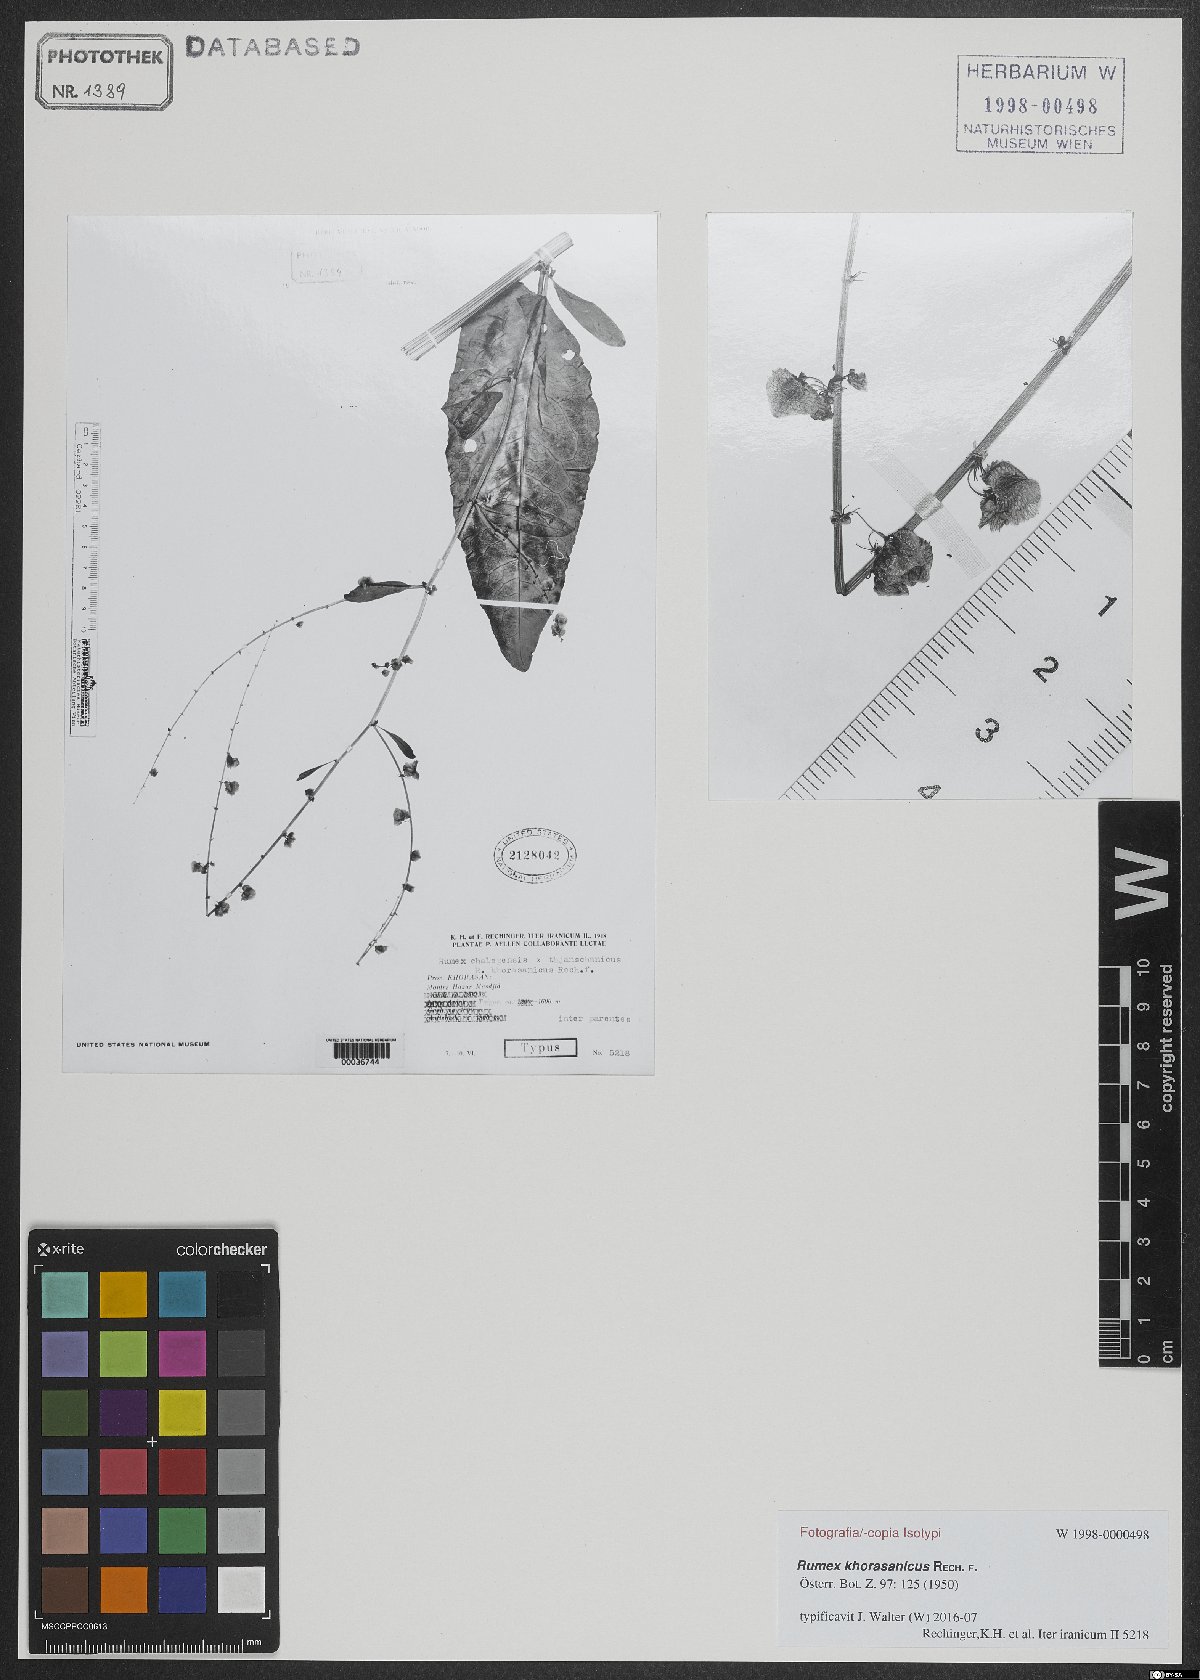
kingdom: Plantae
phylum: Tracheophyta
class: Magnoliopsida
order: Caryophyllales
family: Polygonaceae
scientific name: Polygonaceae
